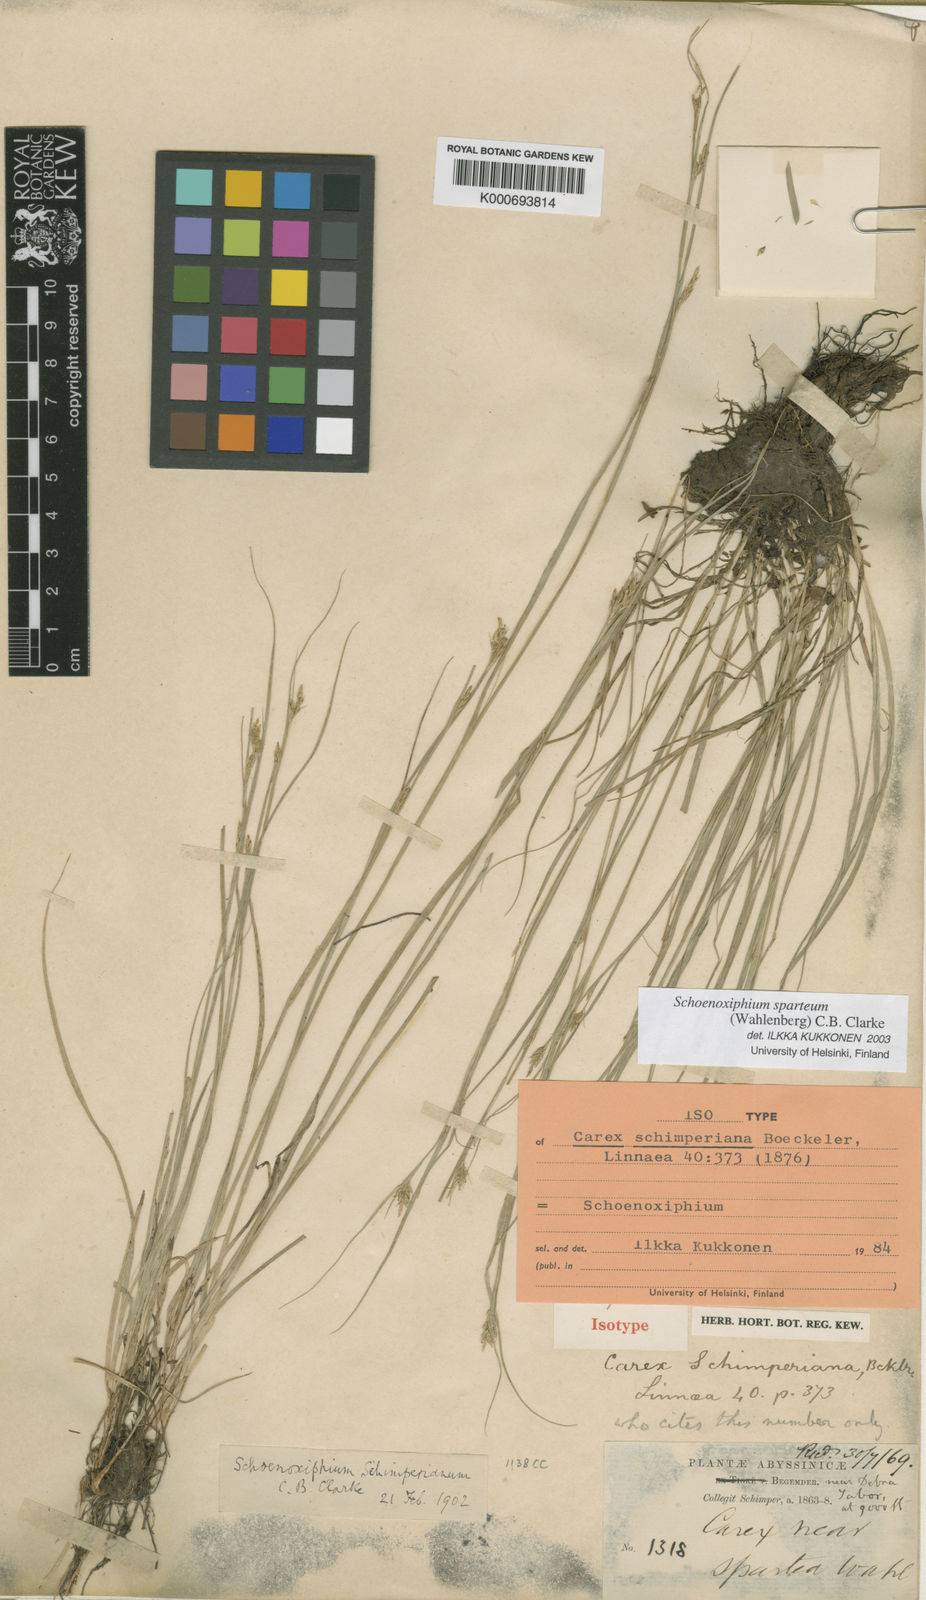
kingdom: Plantae
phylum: Tracheophyta
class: Liliopsida
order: Poales
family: Cyperaceae
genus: Carex
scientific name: Carex spartea
